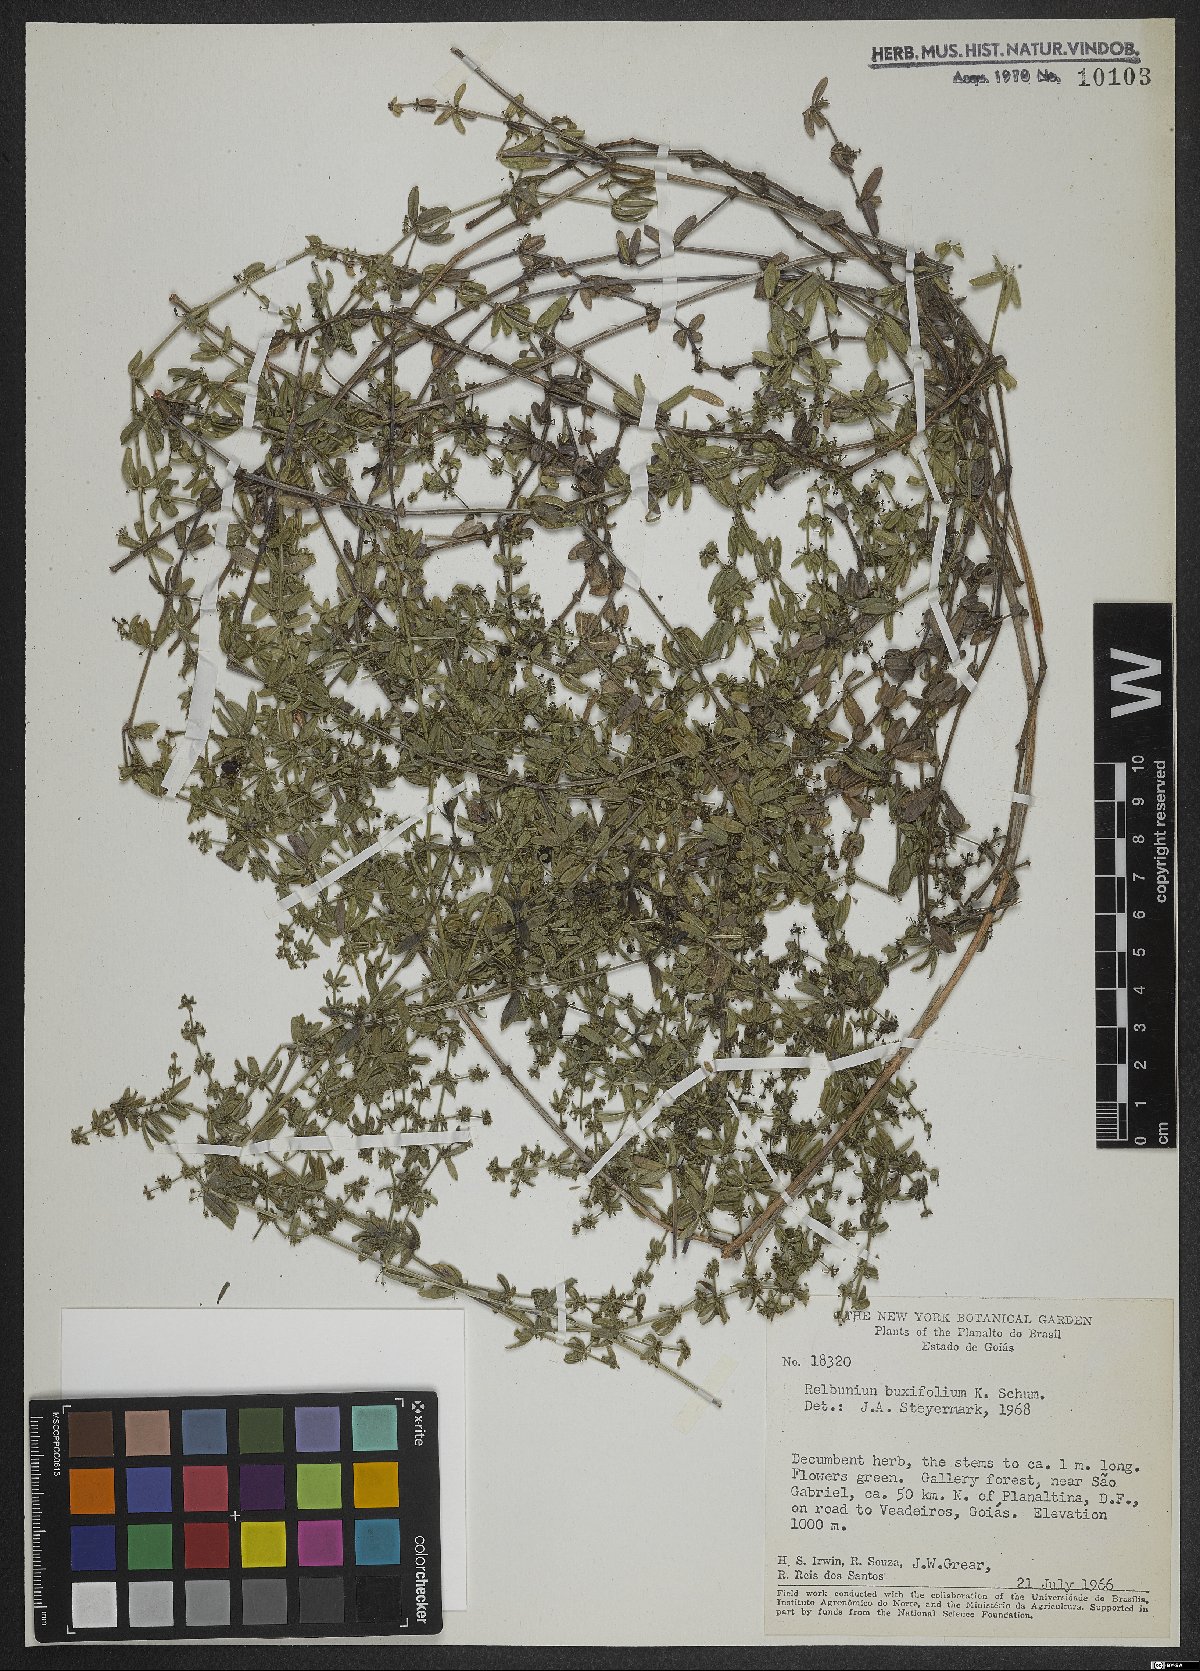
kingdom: Plantae
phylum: Tracheophyta
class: Magnoliopsida
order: Gentianales
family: Rubiaceae
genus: Galium
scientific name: Galium hypocarpium
